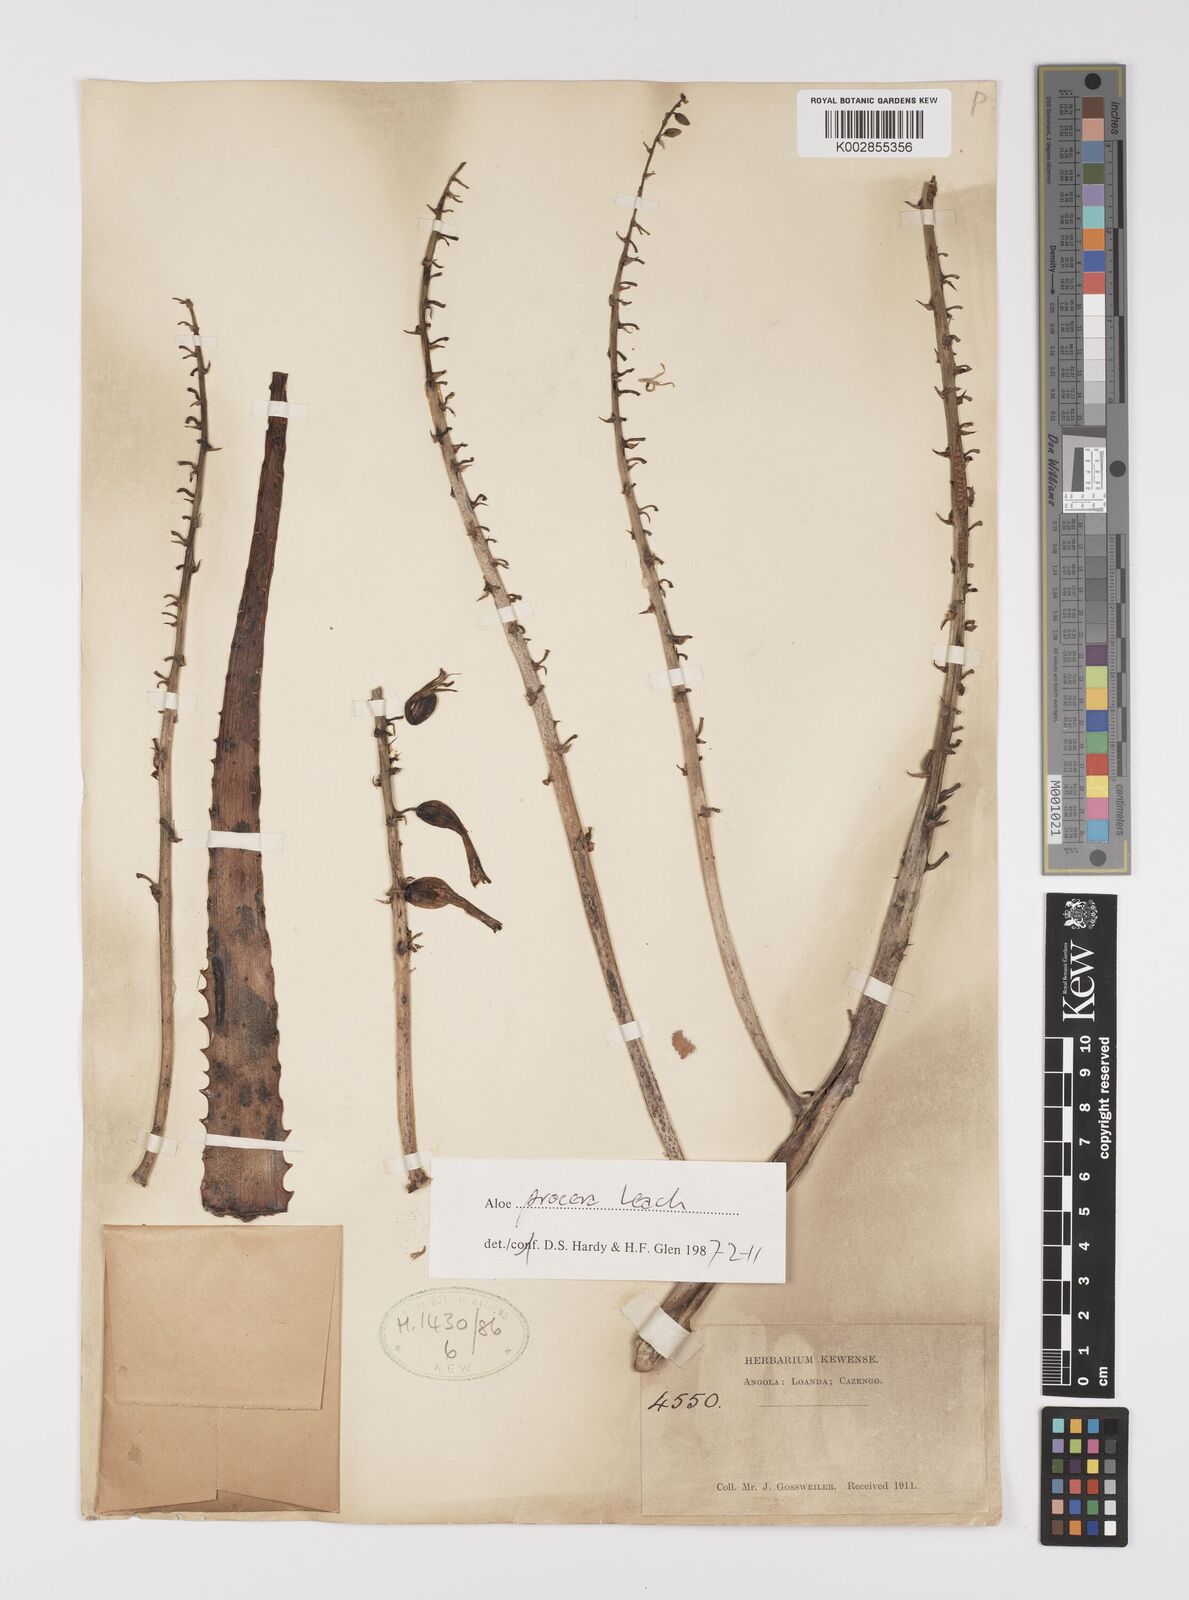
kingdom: Plantae
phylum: Tracheophyta
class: Liliopsida
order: Asparagales
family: Asphodelaceae
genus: Aloe
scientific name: Aloe procera
